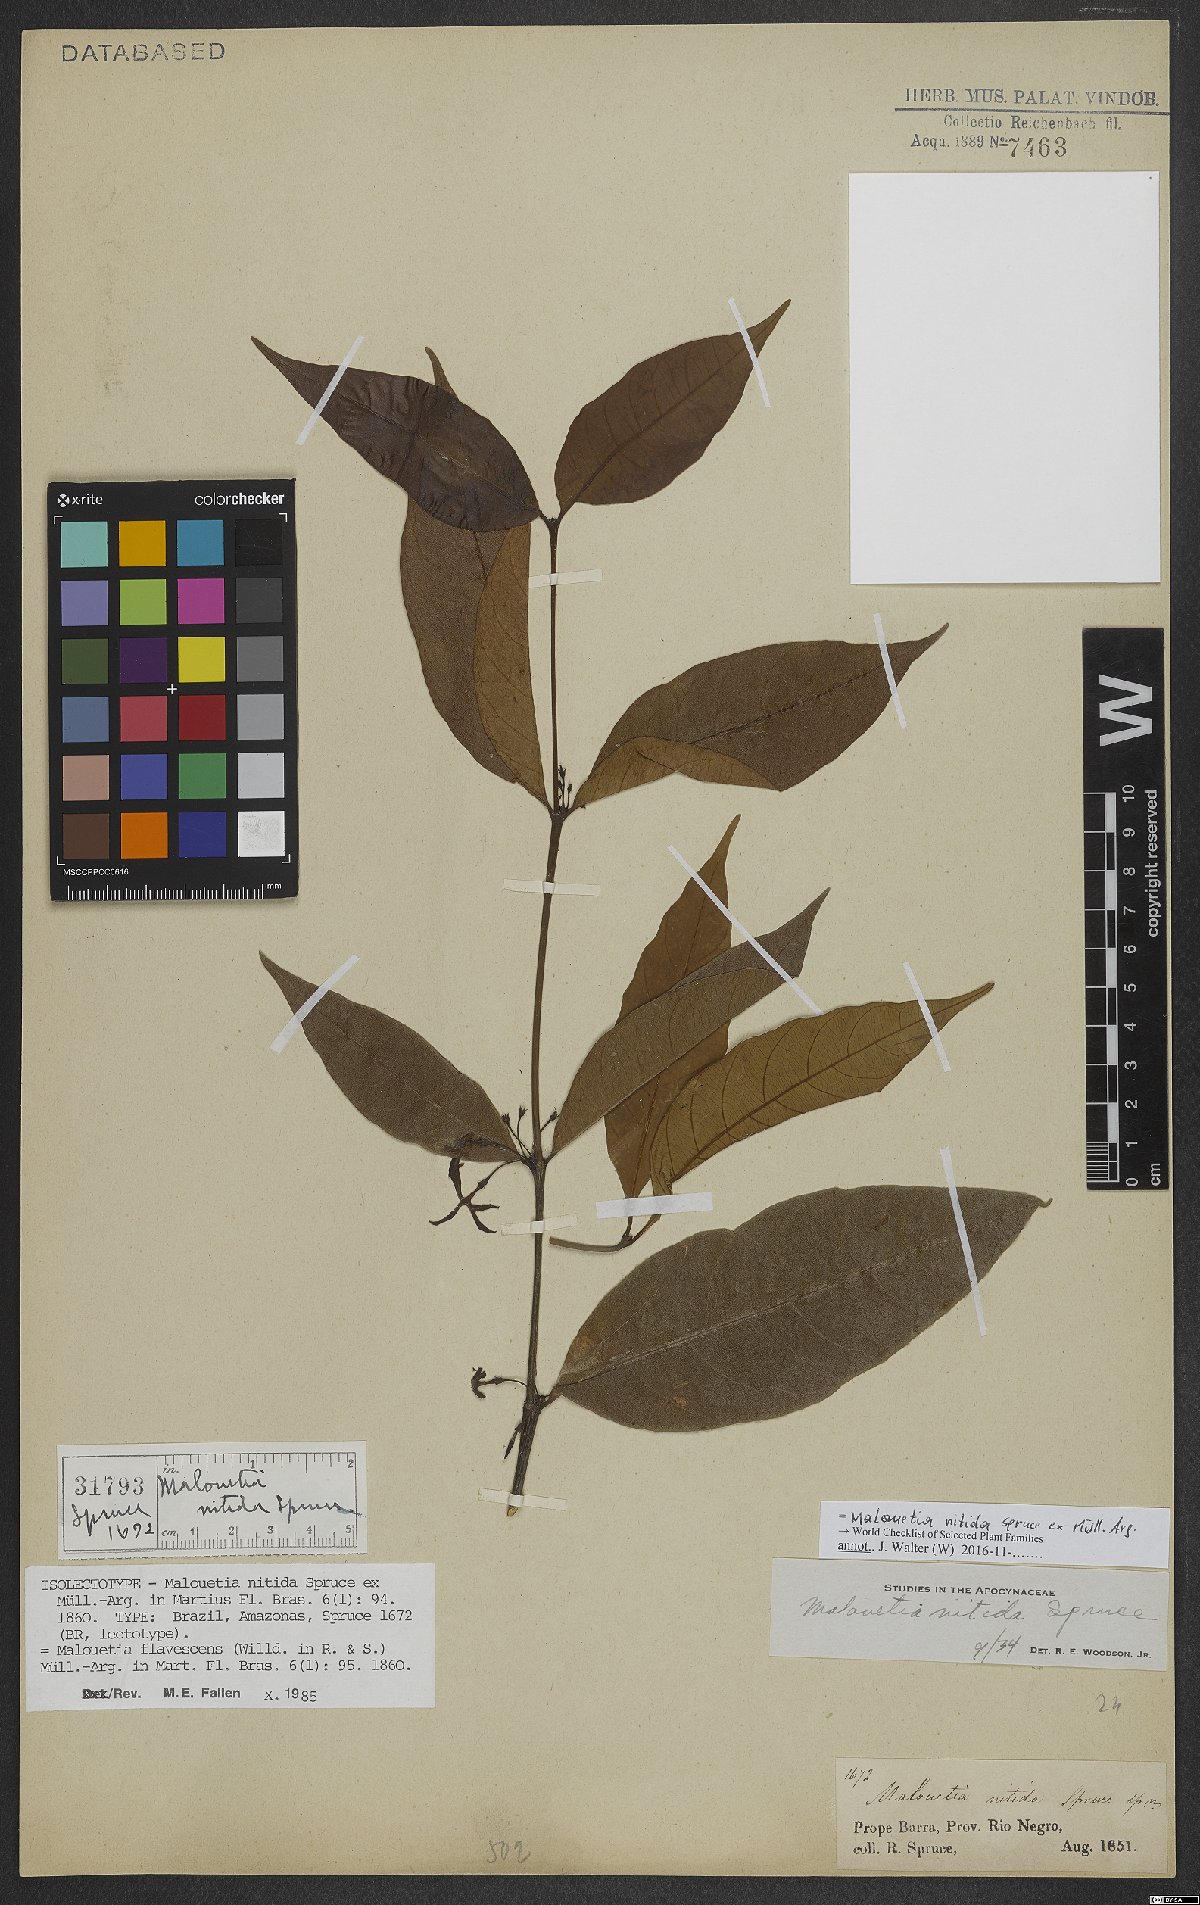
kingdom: Plantae
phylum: Tracheophyta
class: Magnoliopsida
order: Gentianales
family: Apocynaceae
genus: Malouetia
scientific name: Malouetia nitida
